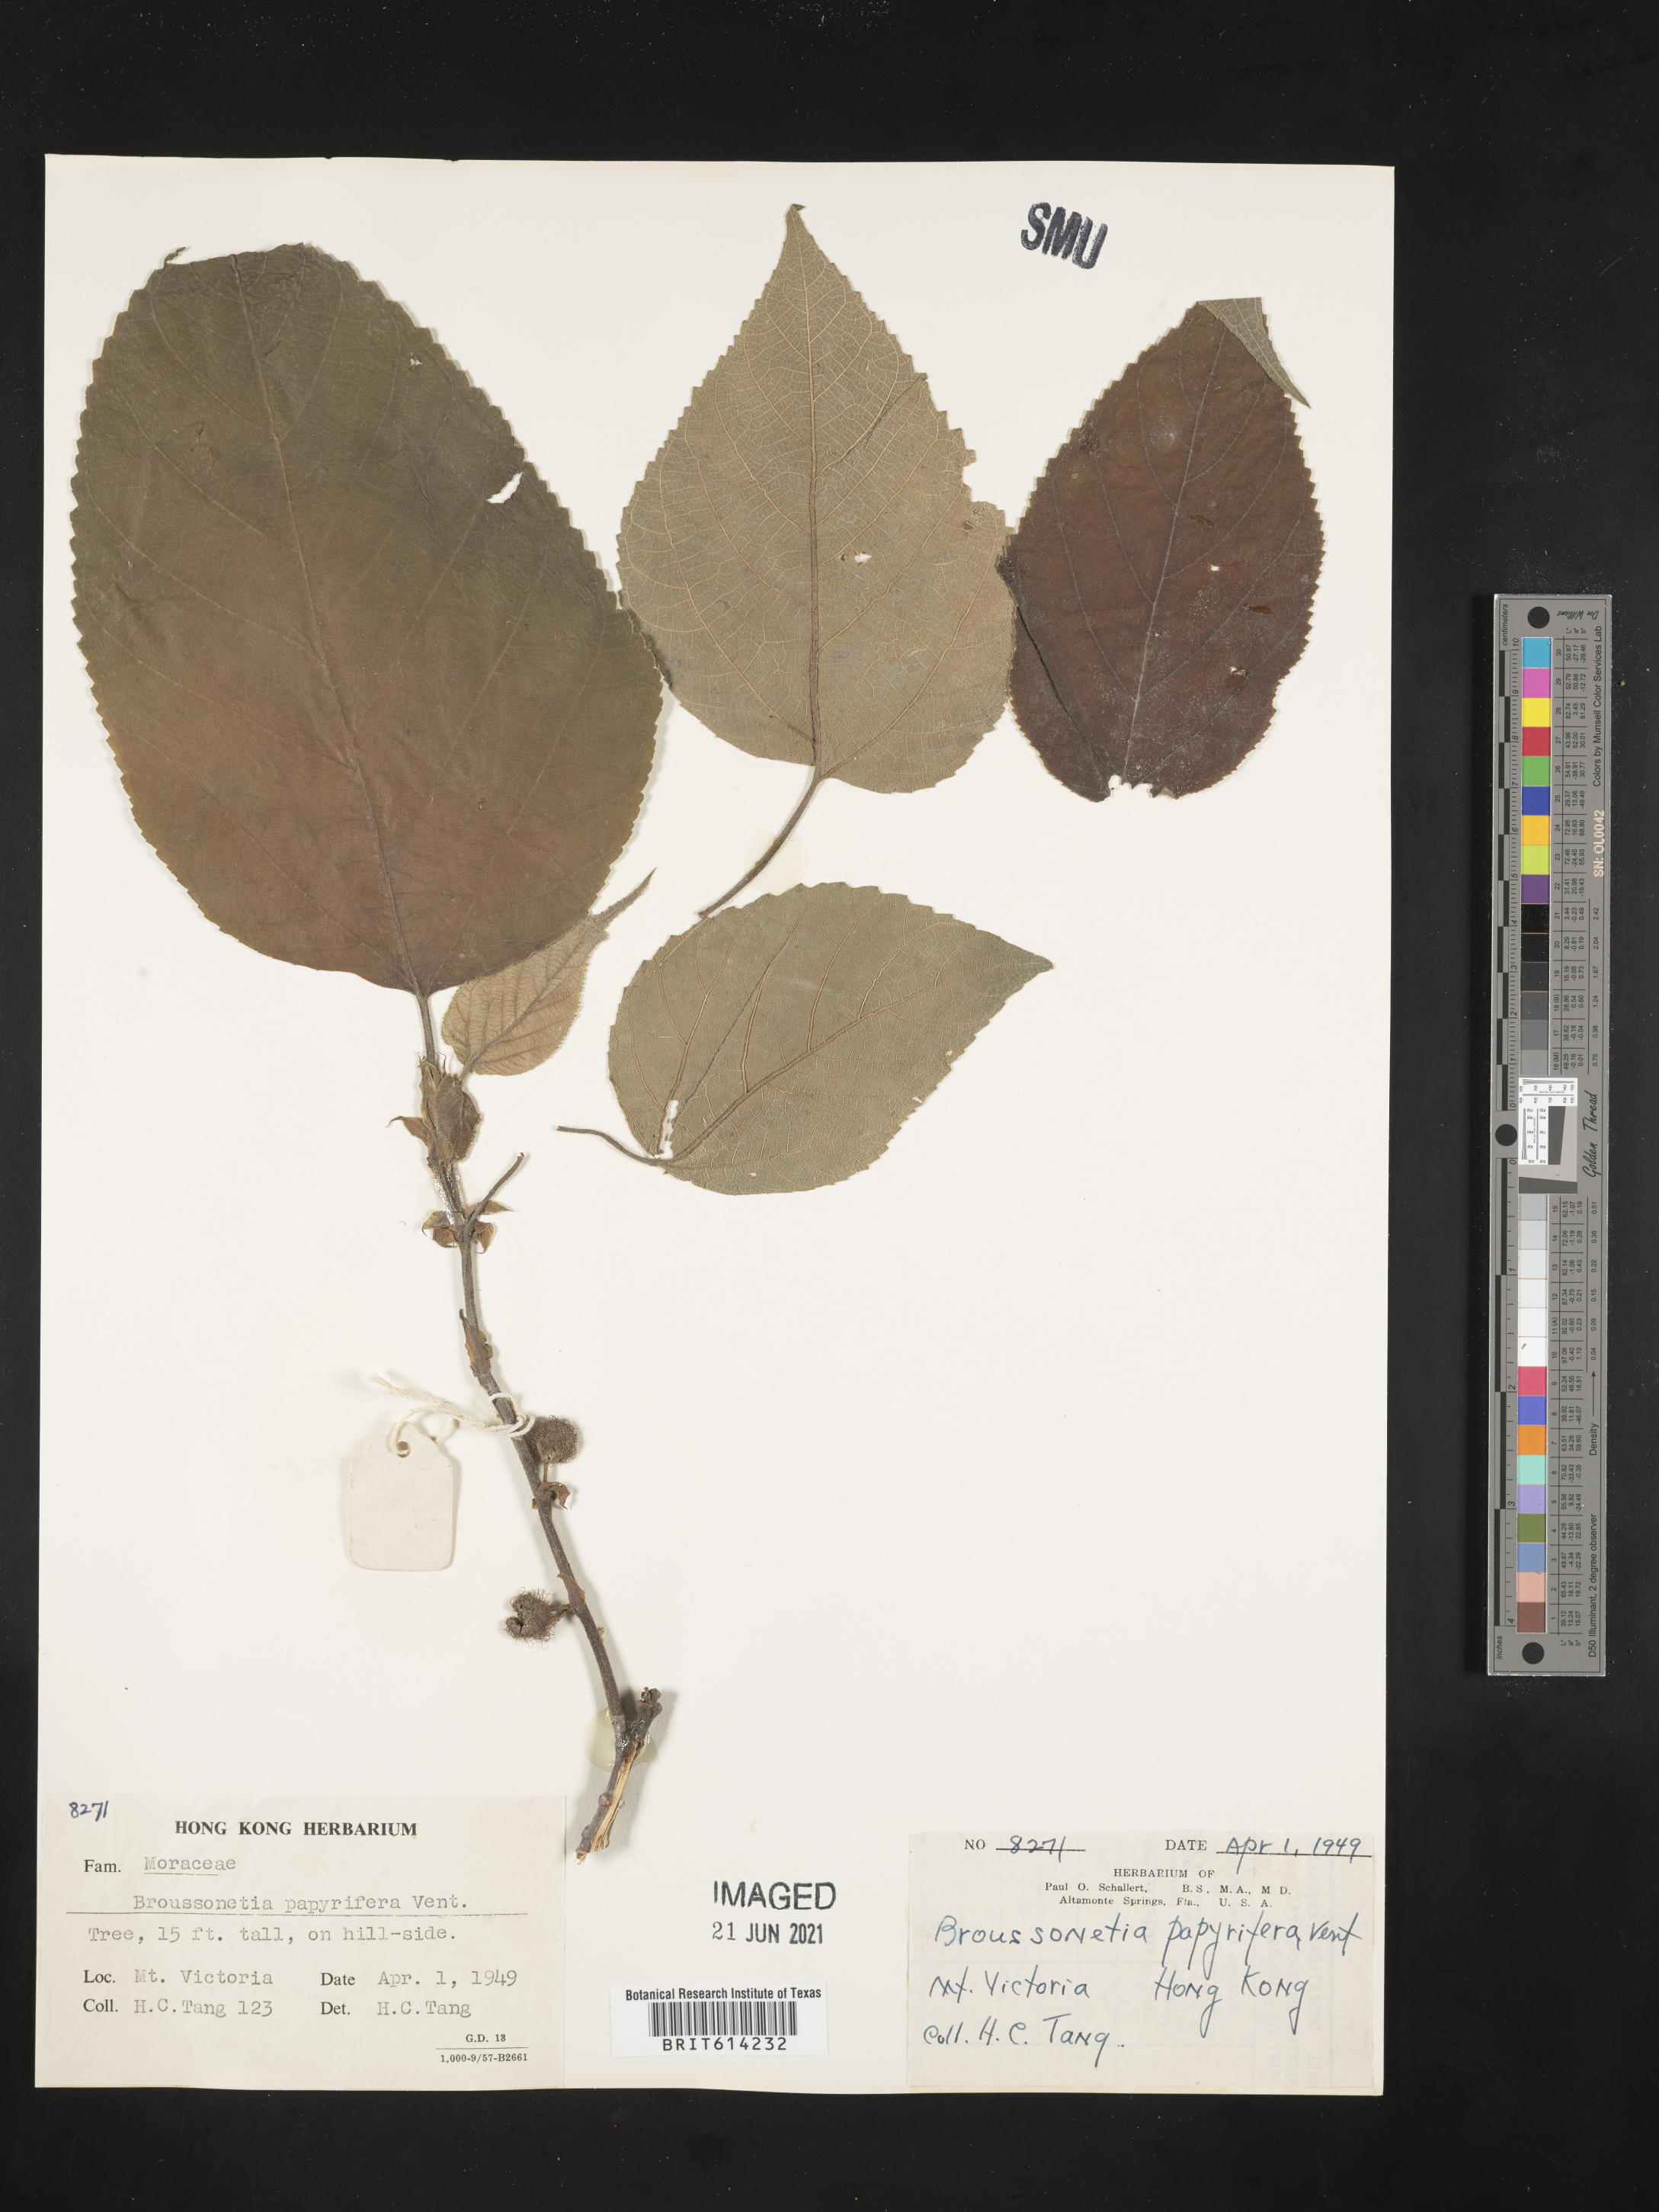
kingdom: Plantae
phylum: Tracheophyta
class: Magnoliopsida
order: Rosales
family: Moraceae
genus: Broussonetia
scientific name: Broussonetia papyrifera
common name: Paper mulberry
